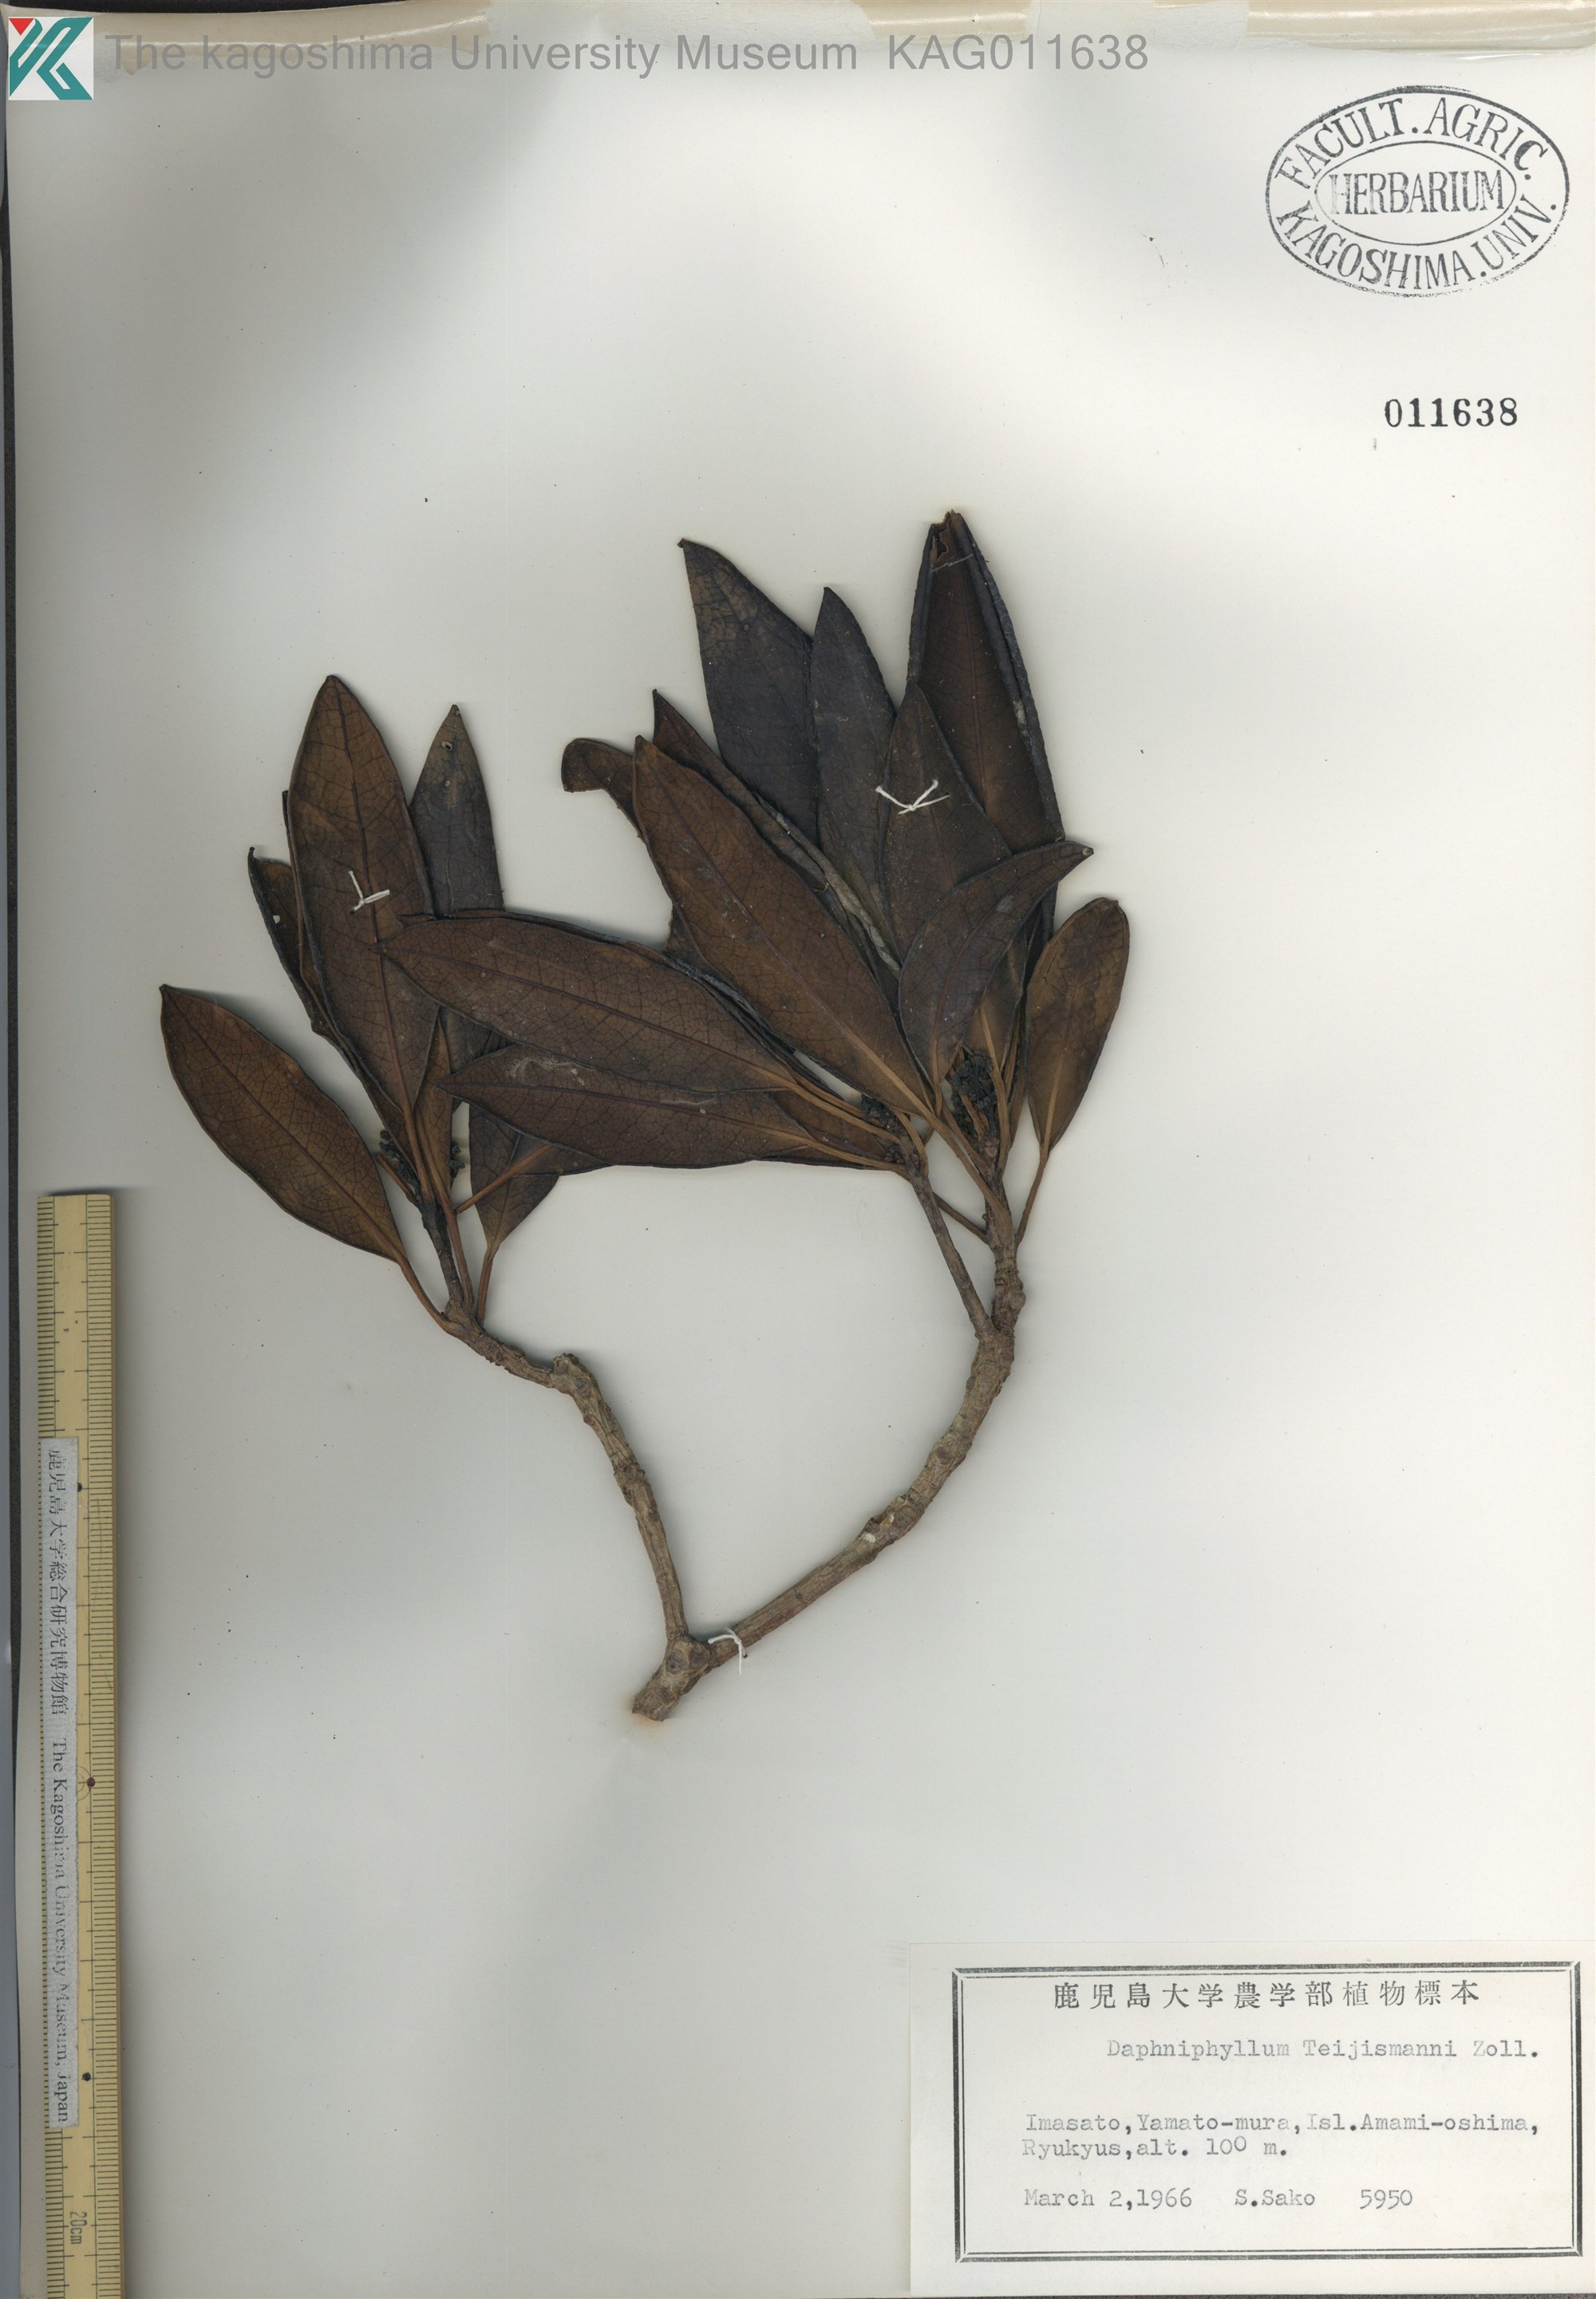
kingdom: Plantae
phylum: Tracheophyta
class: Magnoliopsida
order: Saxifragales
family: Daphniphyllaceae
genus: Daphniphyllum
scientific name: Daphniphyllum teijsmannii
